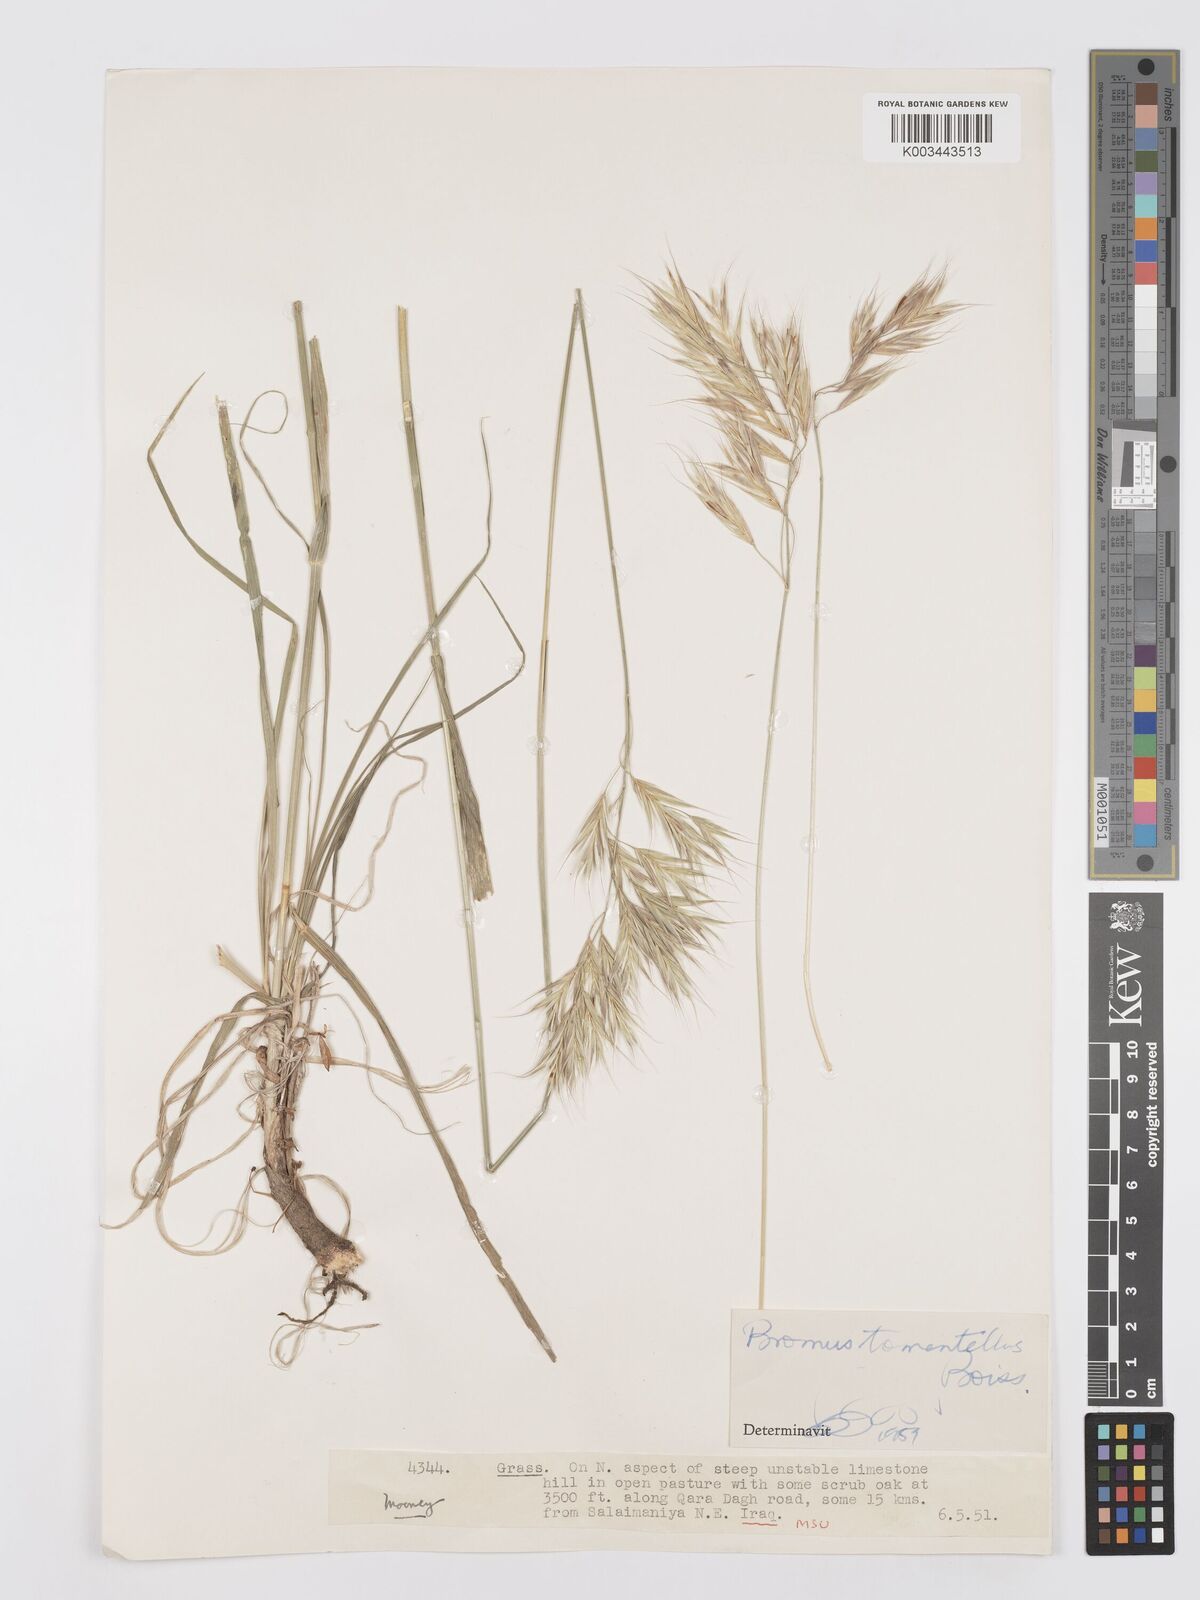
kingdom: Plantae
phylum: Tracheophyta
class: Liliopsida
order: Poales
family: Poaceae
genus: Bromus
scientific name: Bromus tomentellus
